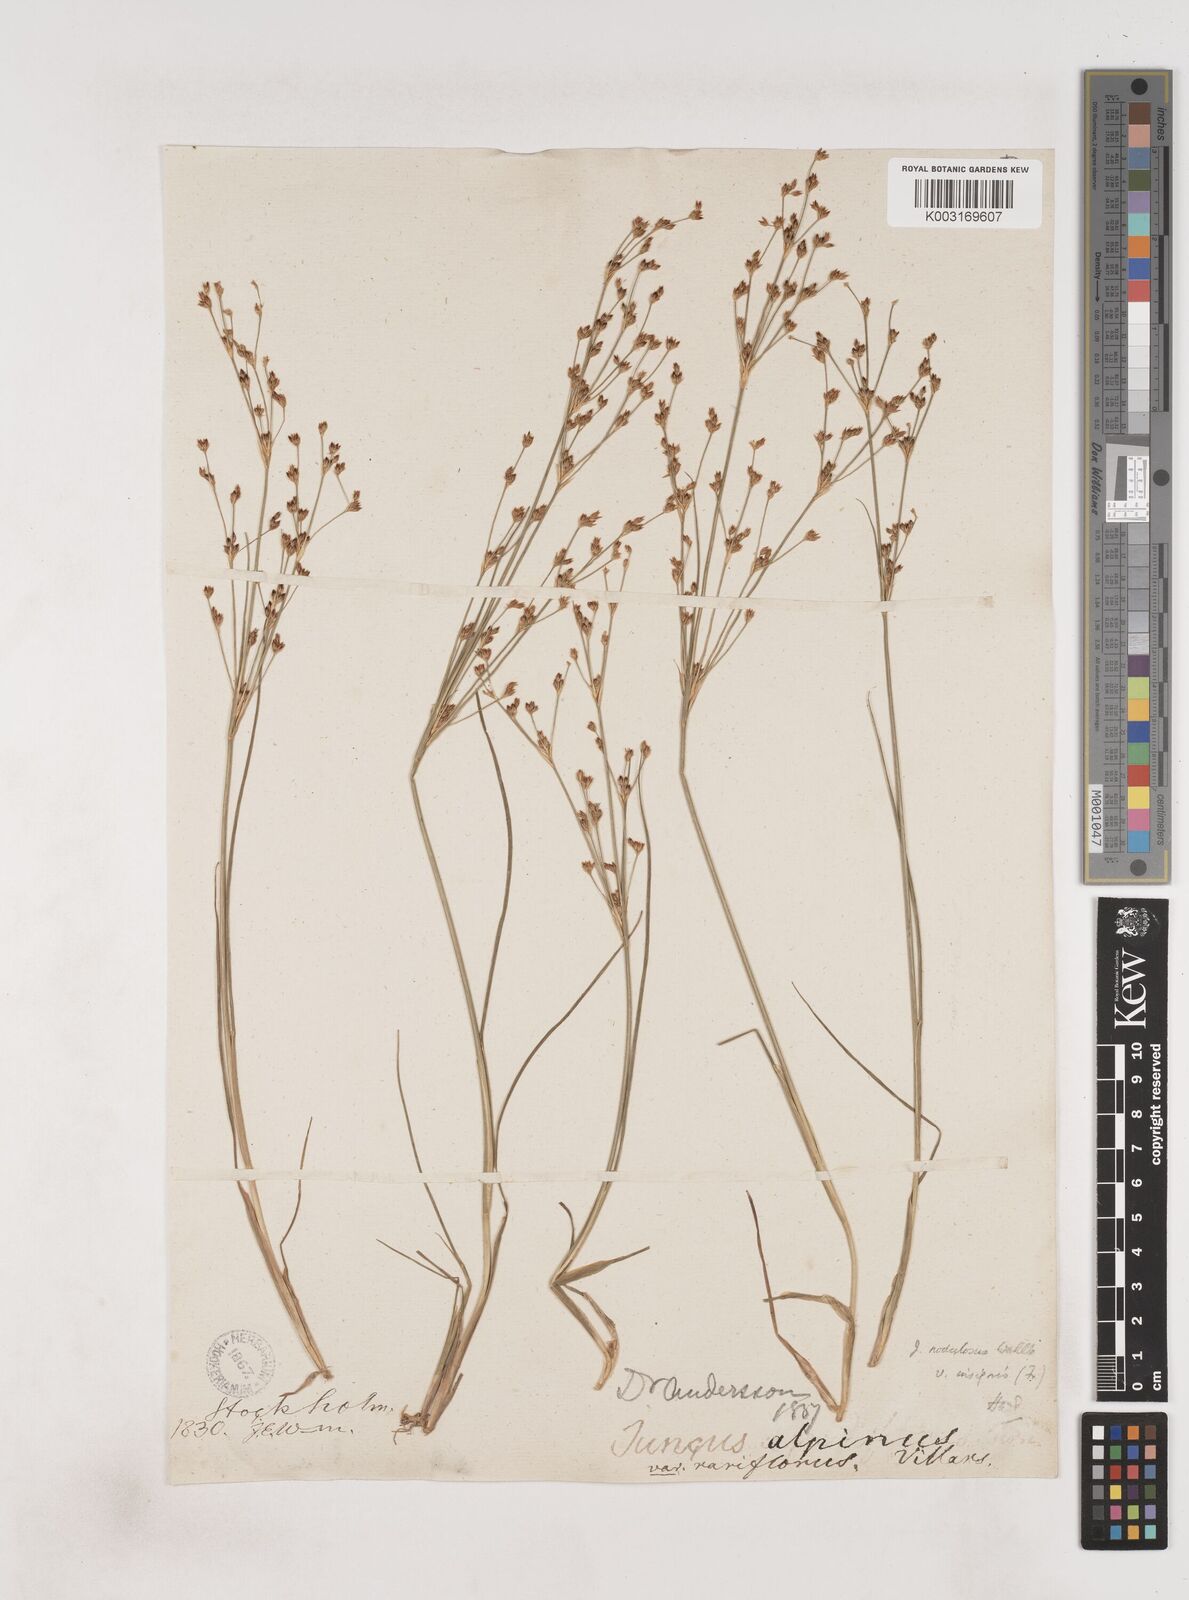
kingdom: Plantae
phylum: Tracheophyta
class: Liliopsida
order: Poales
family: Juncaceae
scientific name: Juncaceae
